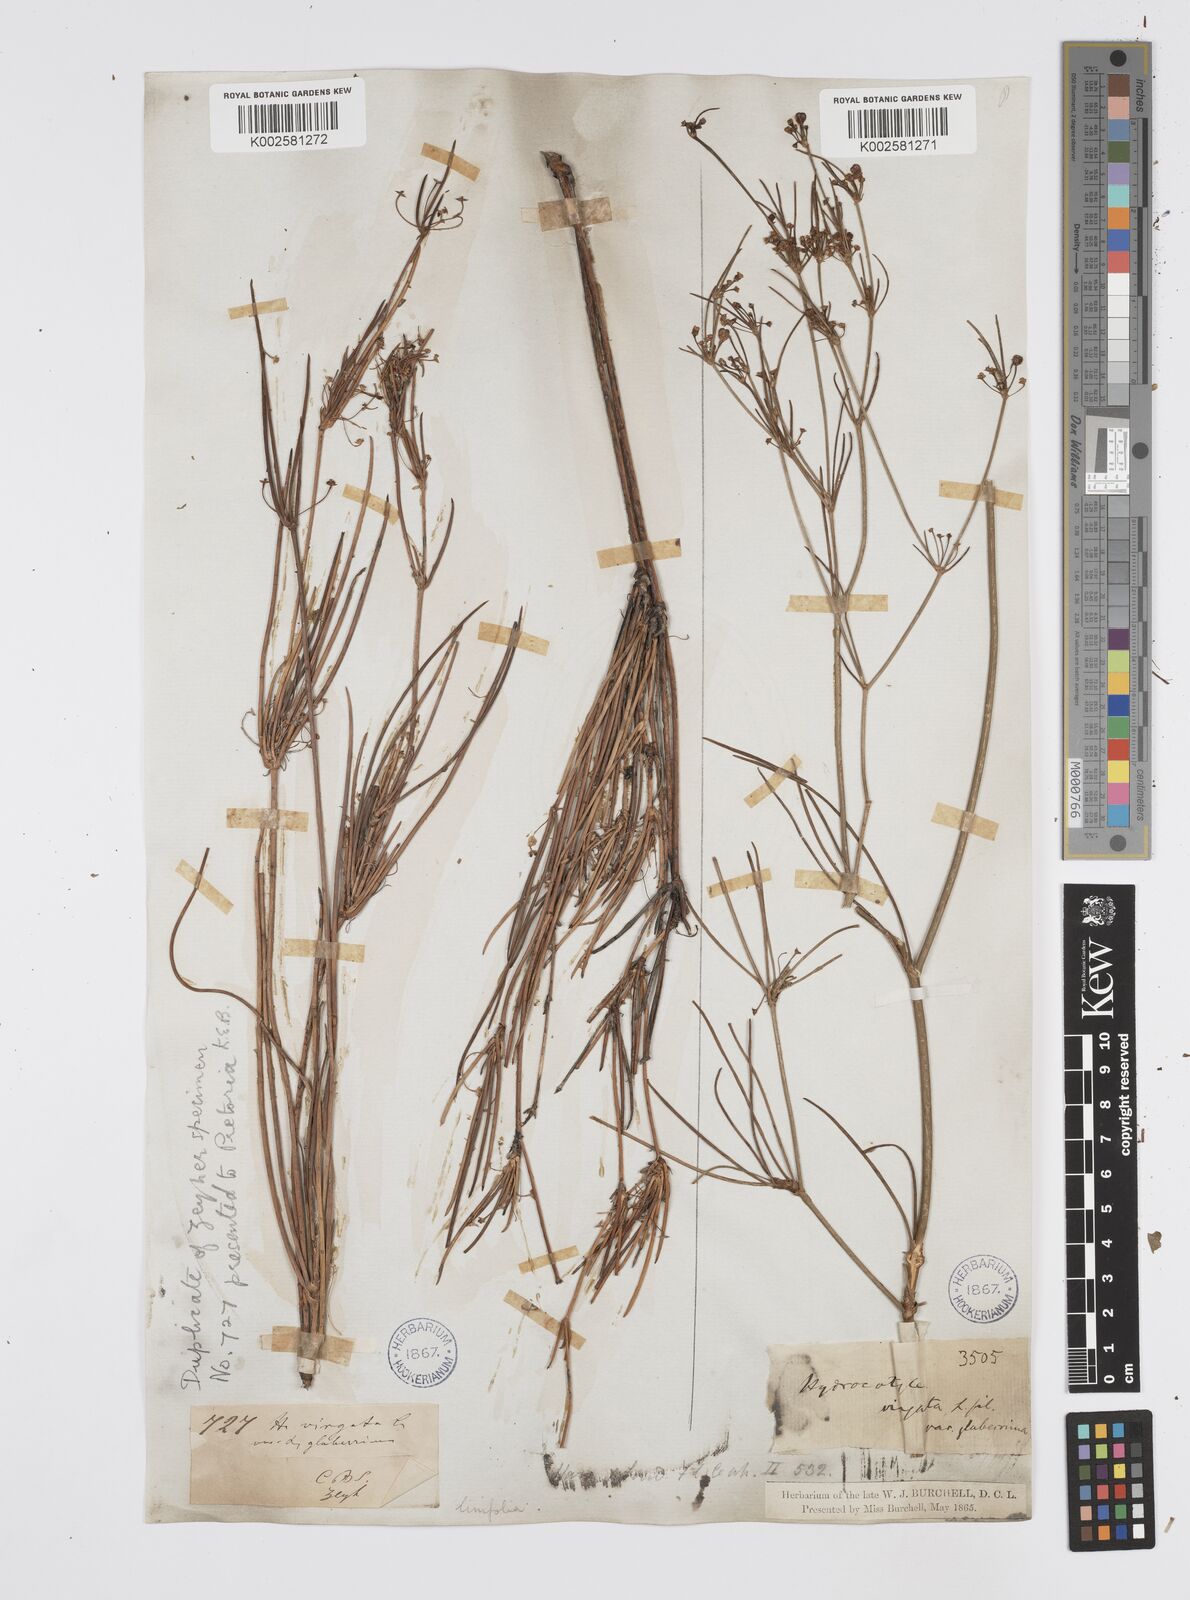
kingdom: Plantae
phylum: Tracheophyta
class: Magnoliopsida
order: Apiales
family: Apiaceae
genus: Centella
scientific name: Centella linifolia
